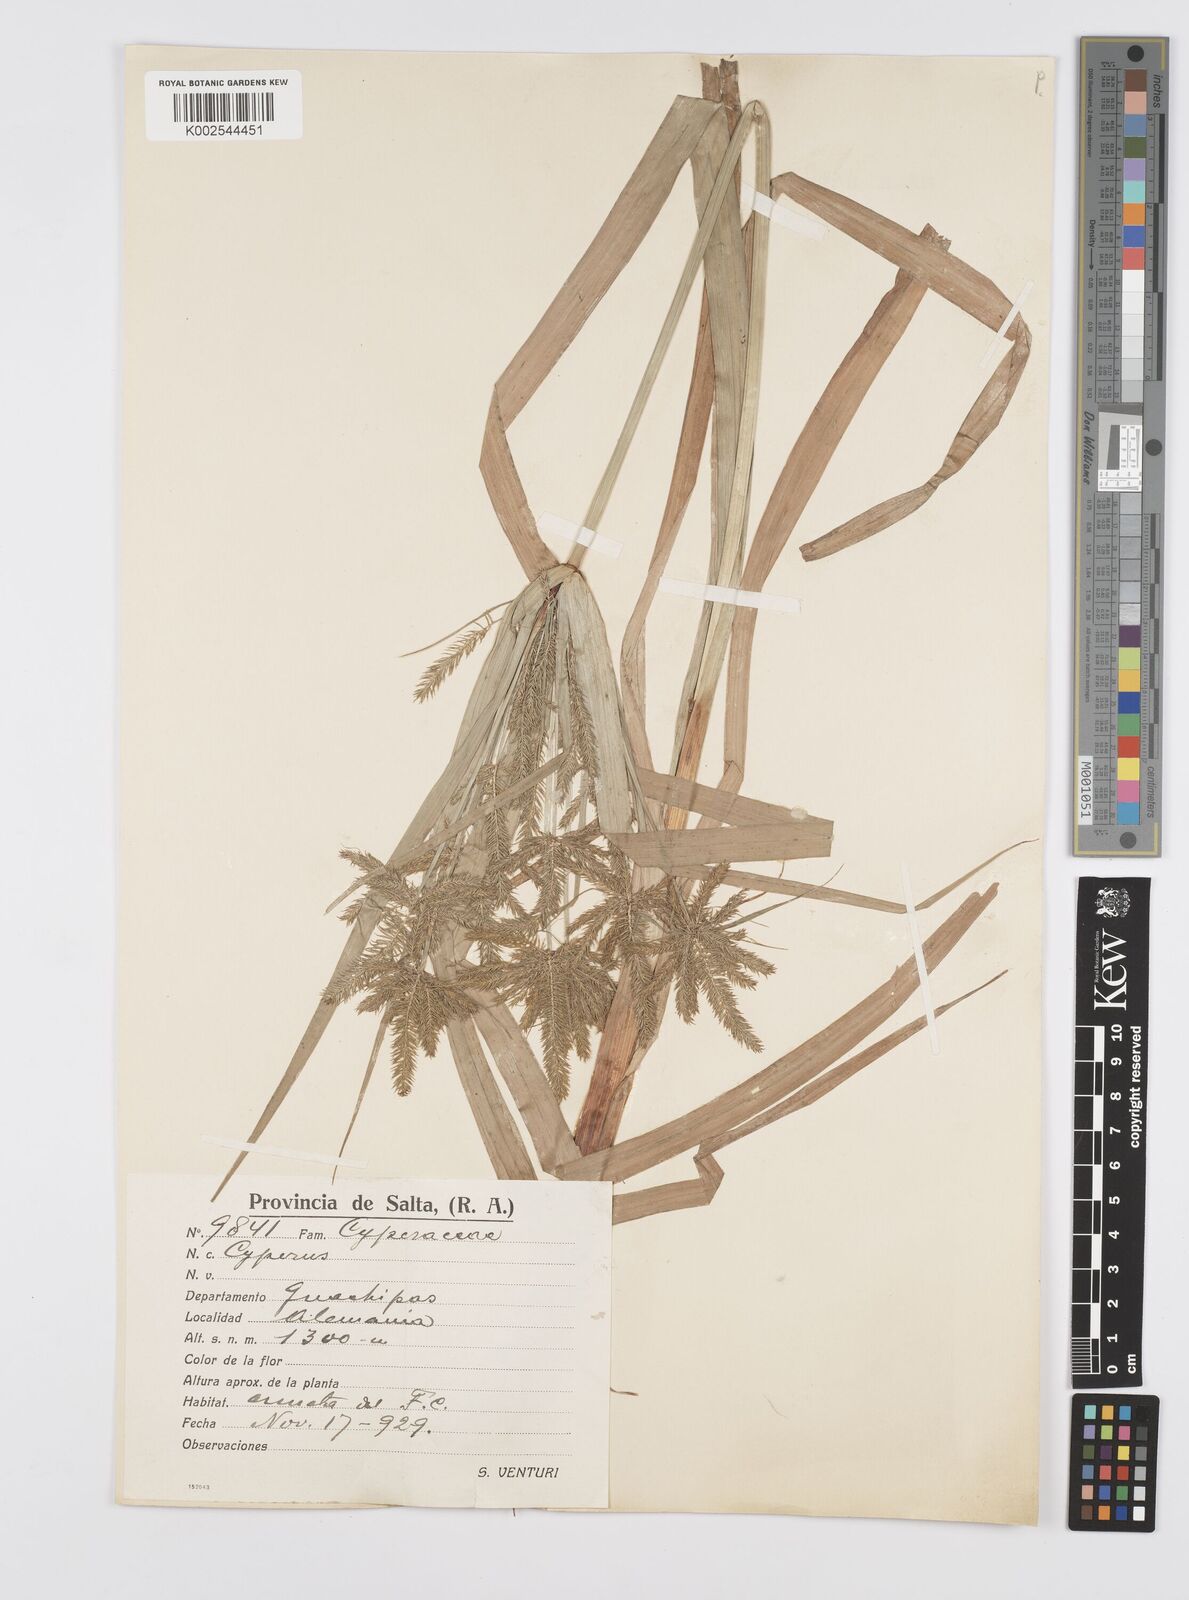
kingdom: Plantae
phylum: Tracheophyta
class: Liliopsida
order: Poales
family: Cyperaceae
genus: Cyperus
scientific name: Cyperus
